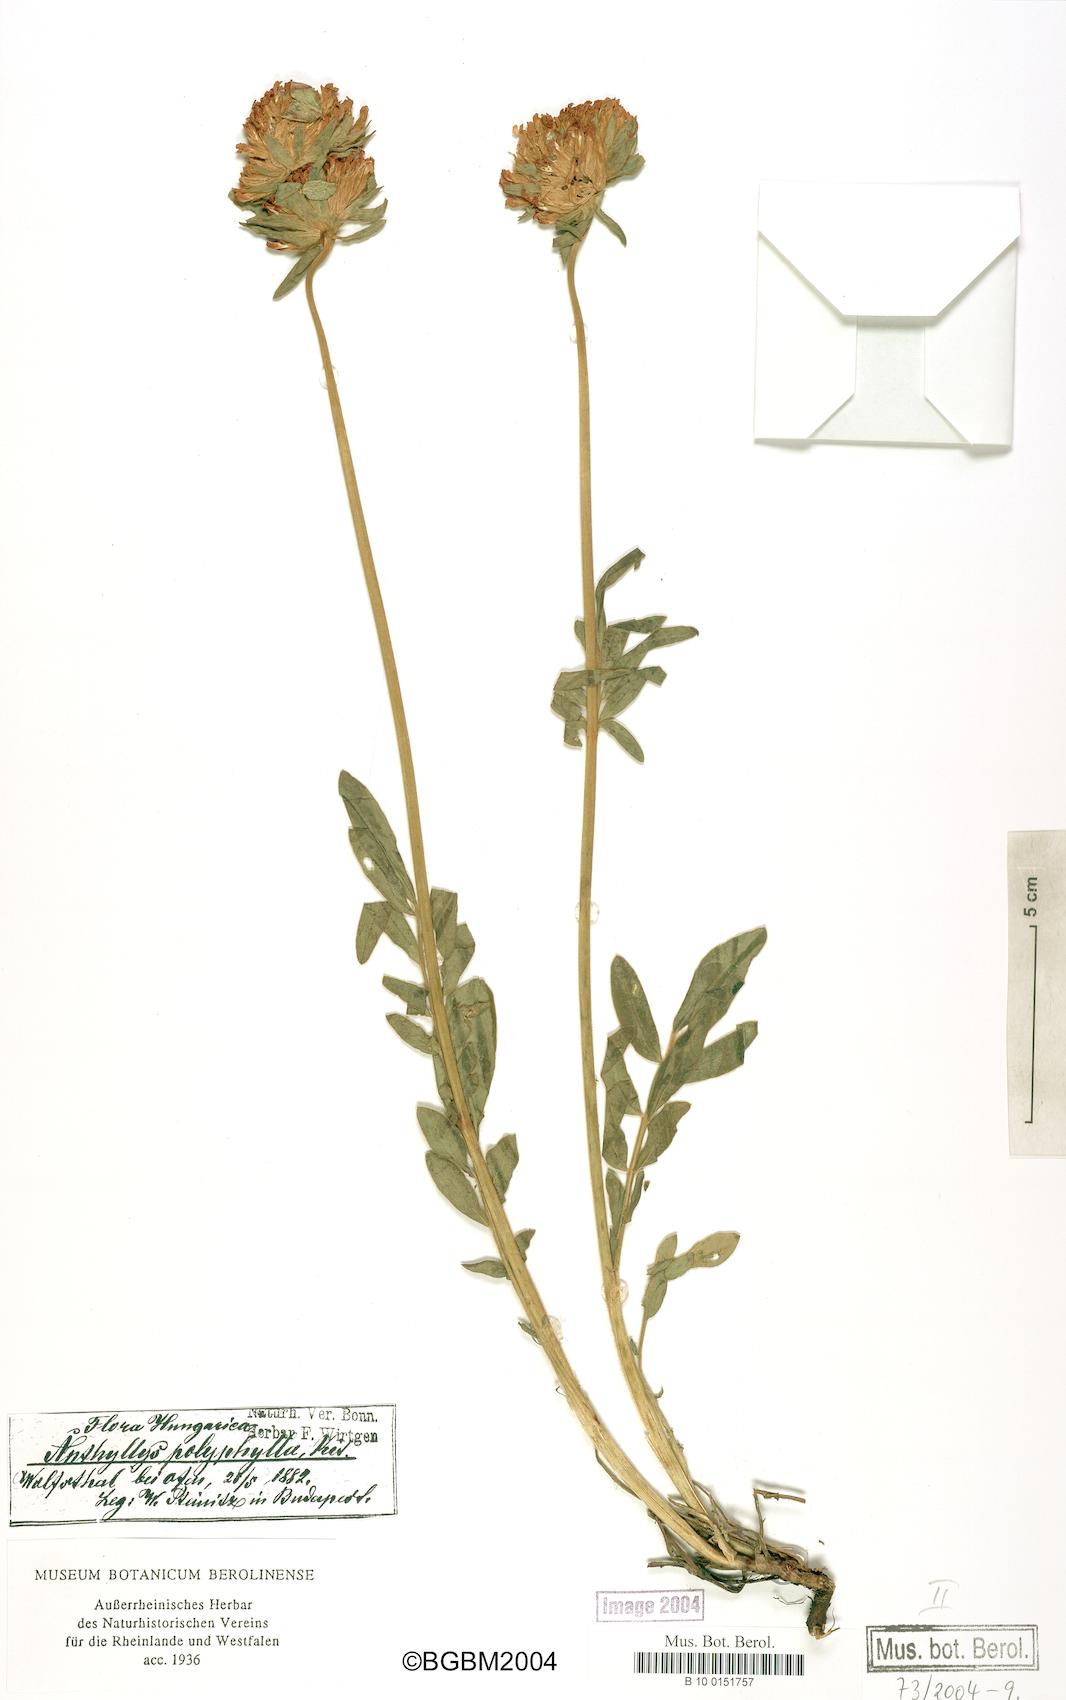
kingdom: Plantae
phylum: Tracheophyta
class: Magnoliopsida
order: Fabales
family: Fabaceae
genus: Anthyllis
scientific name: Anthyllis vulneraria
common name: Kidney vetch
